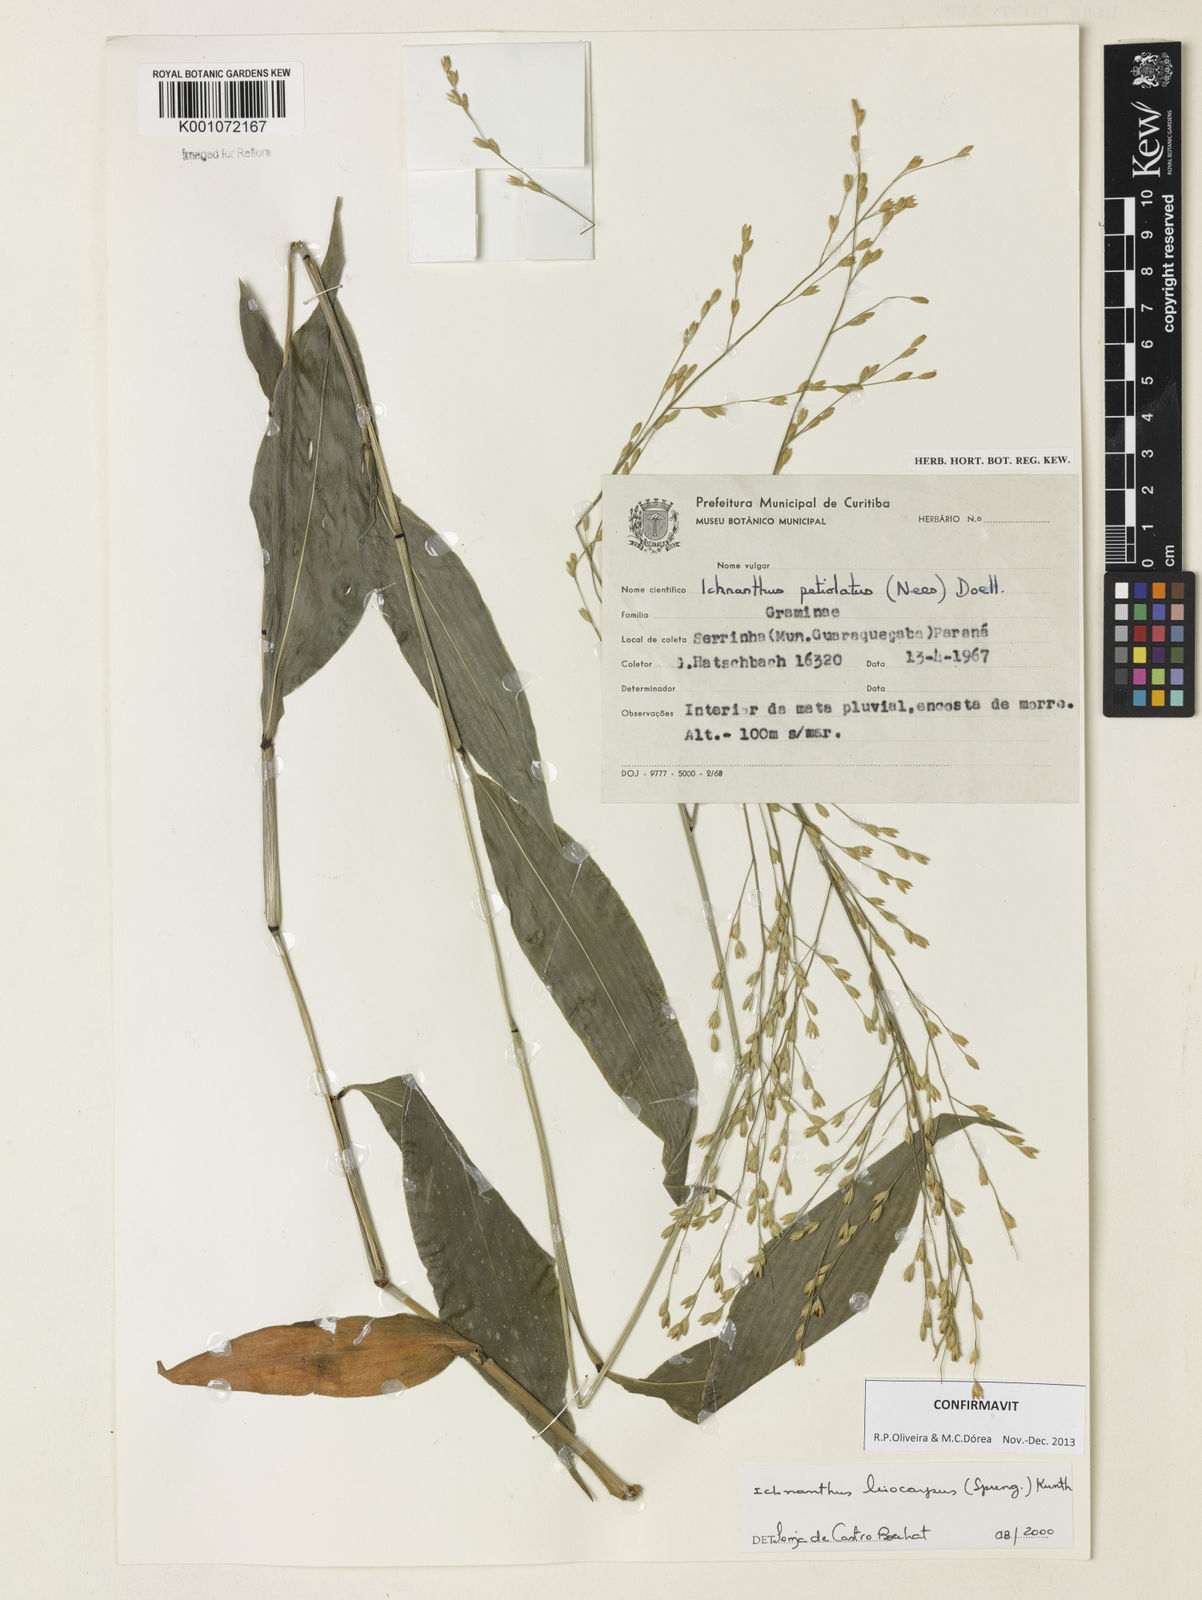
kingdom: Plantae
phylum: Tracheophyta
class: Liliopsida
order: Poales
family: Poaceae
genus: Ichnanthus
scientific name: Ichnanthus leiocarpus
